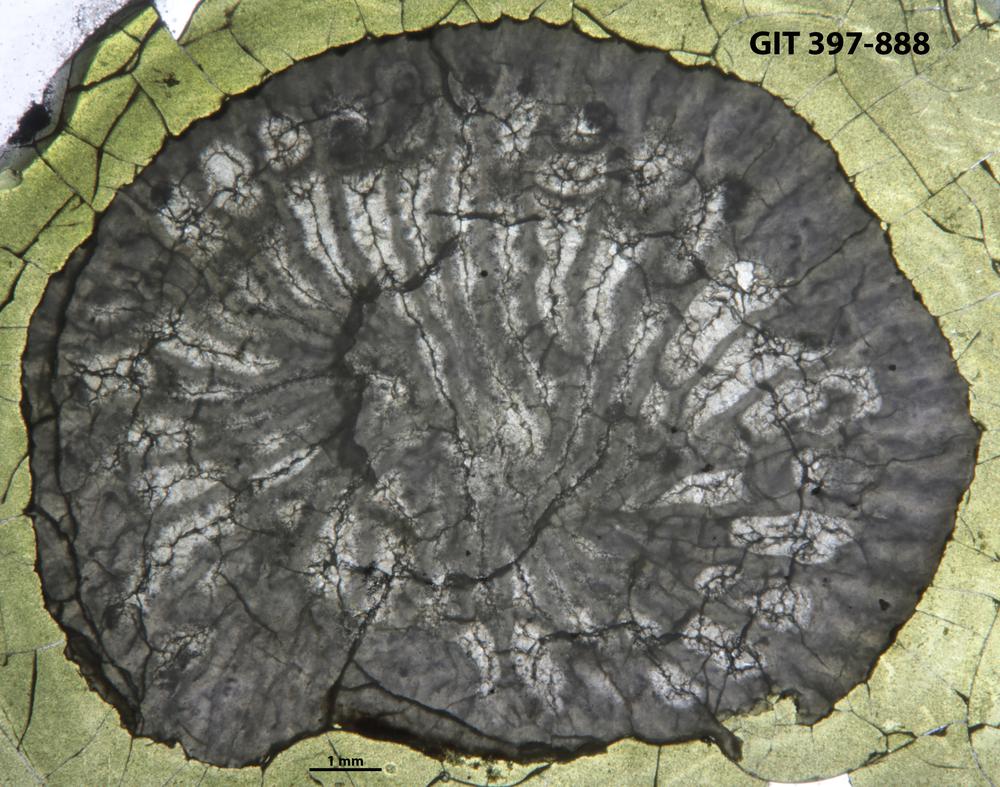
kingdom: Animalia
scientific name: Animalia
